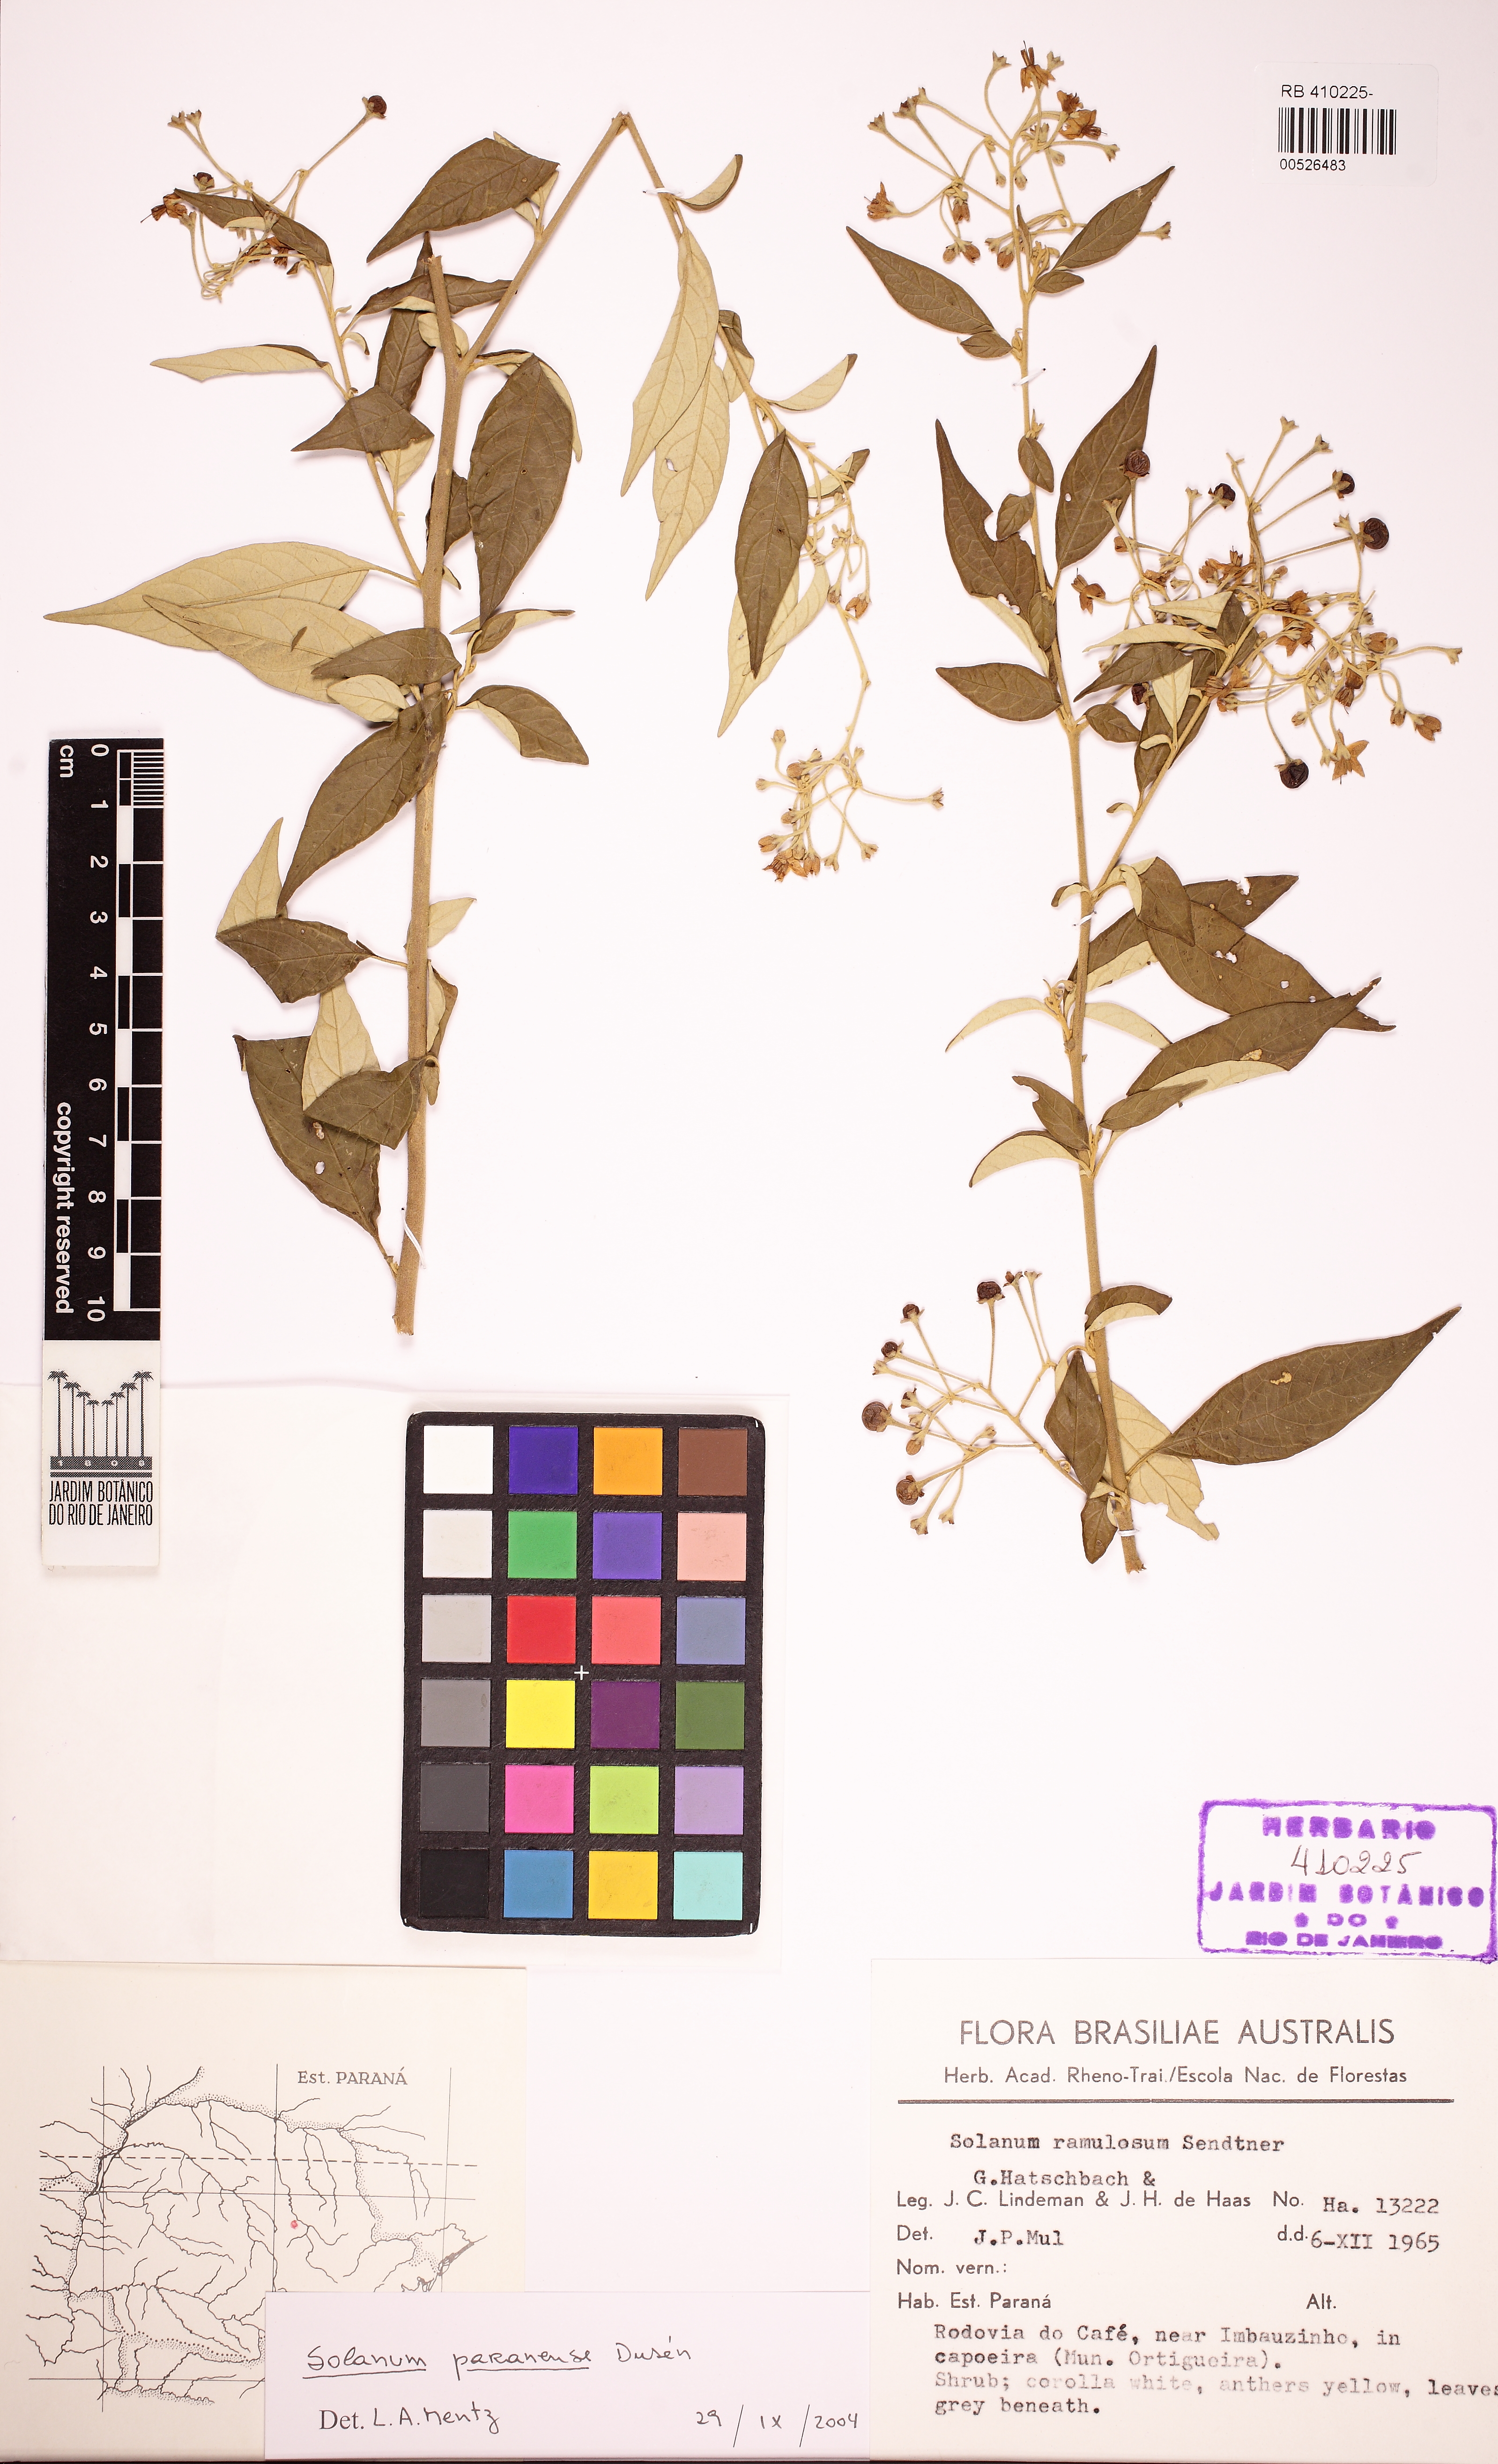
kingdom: Plantae
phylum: Tracheophyta
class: Magnoliopsida
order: Solanales
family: Solanaceae
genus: Solanum
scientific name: Solanum
